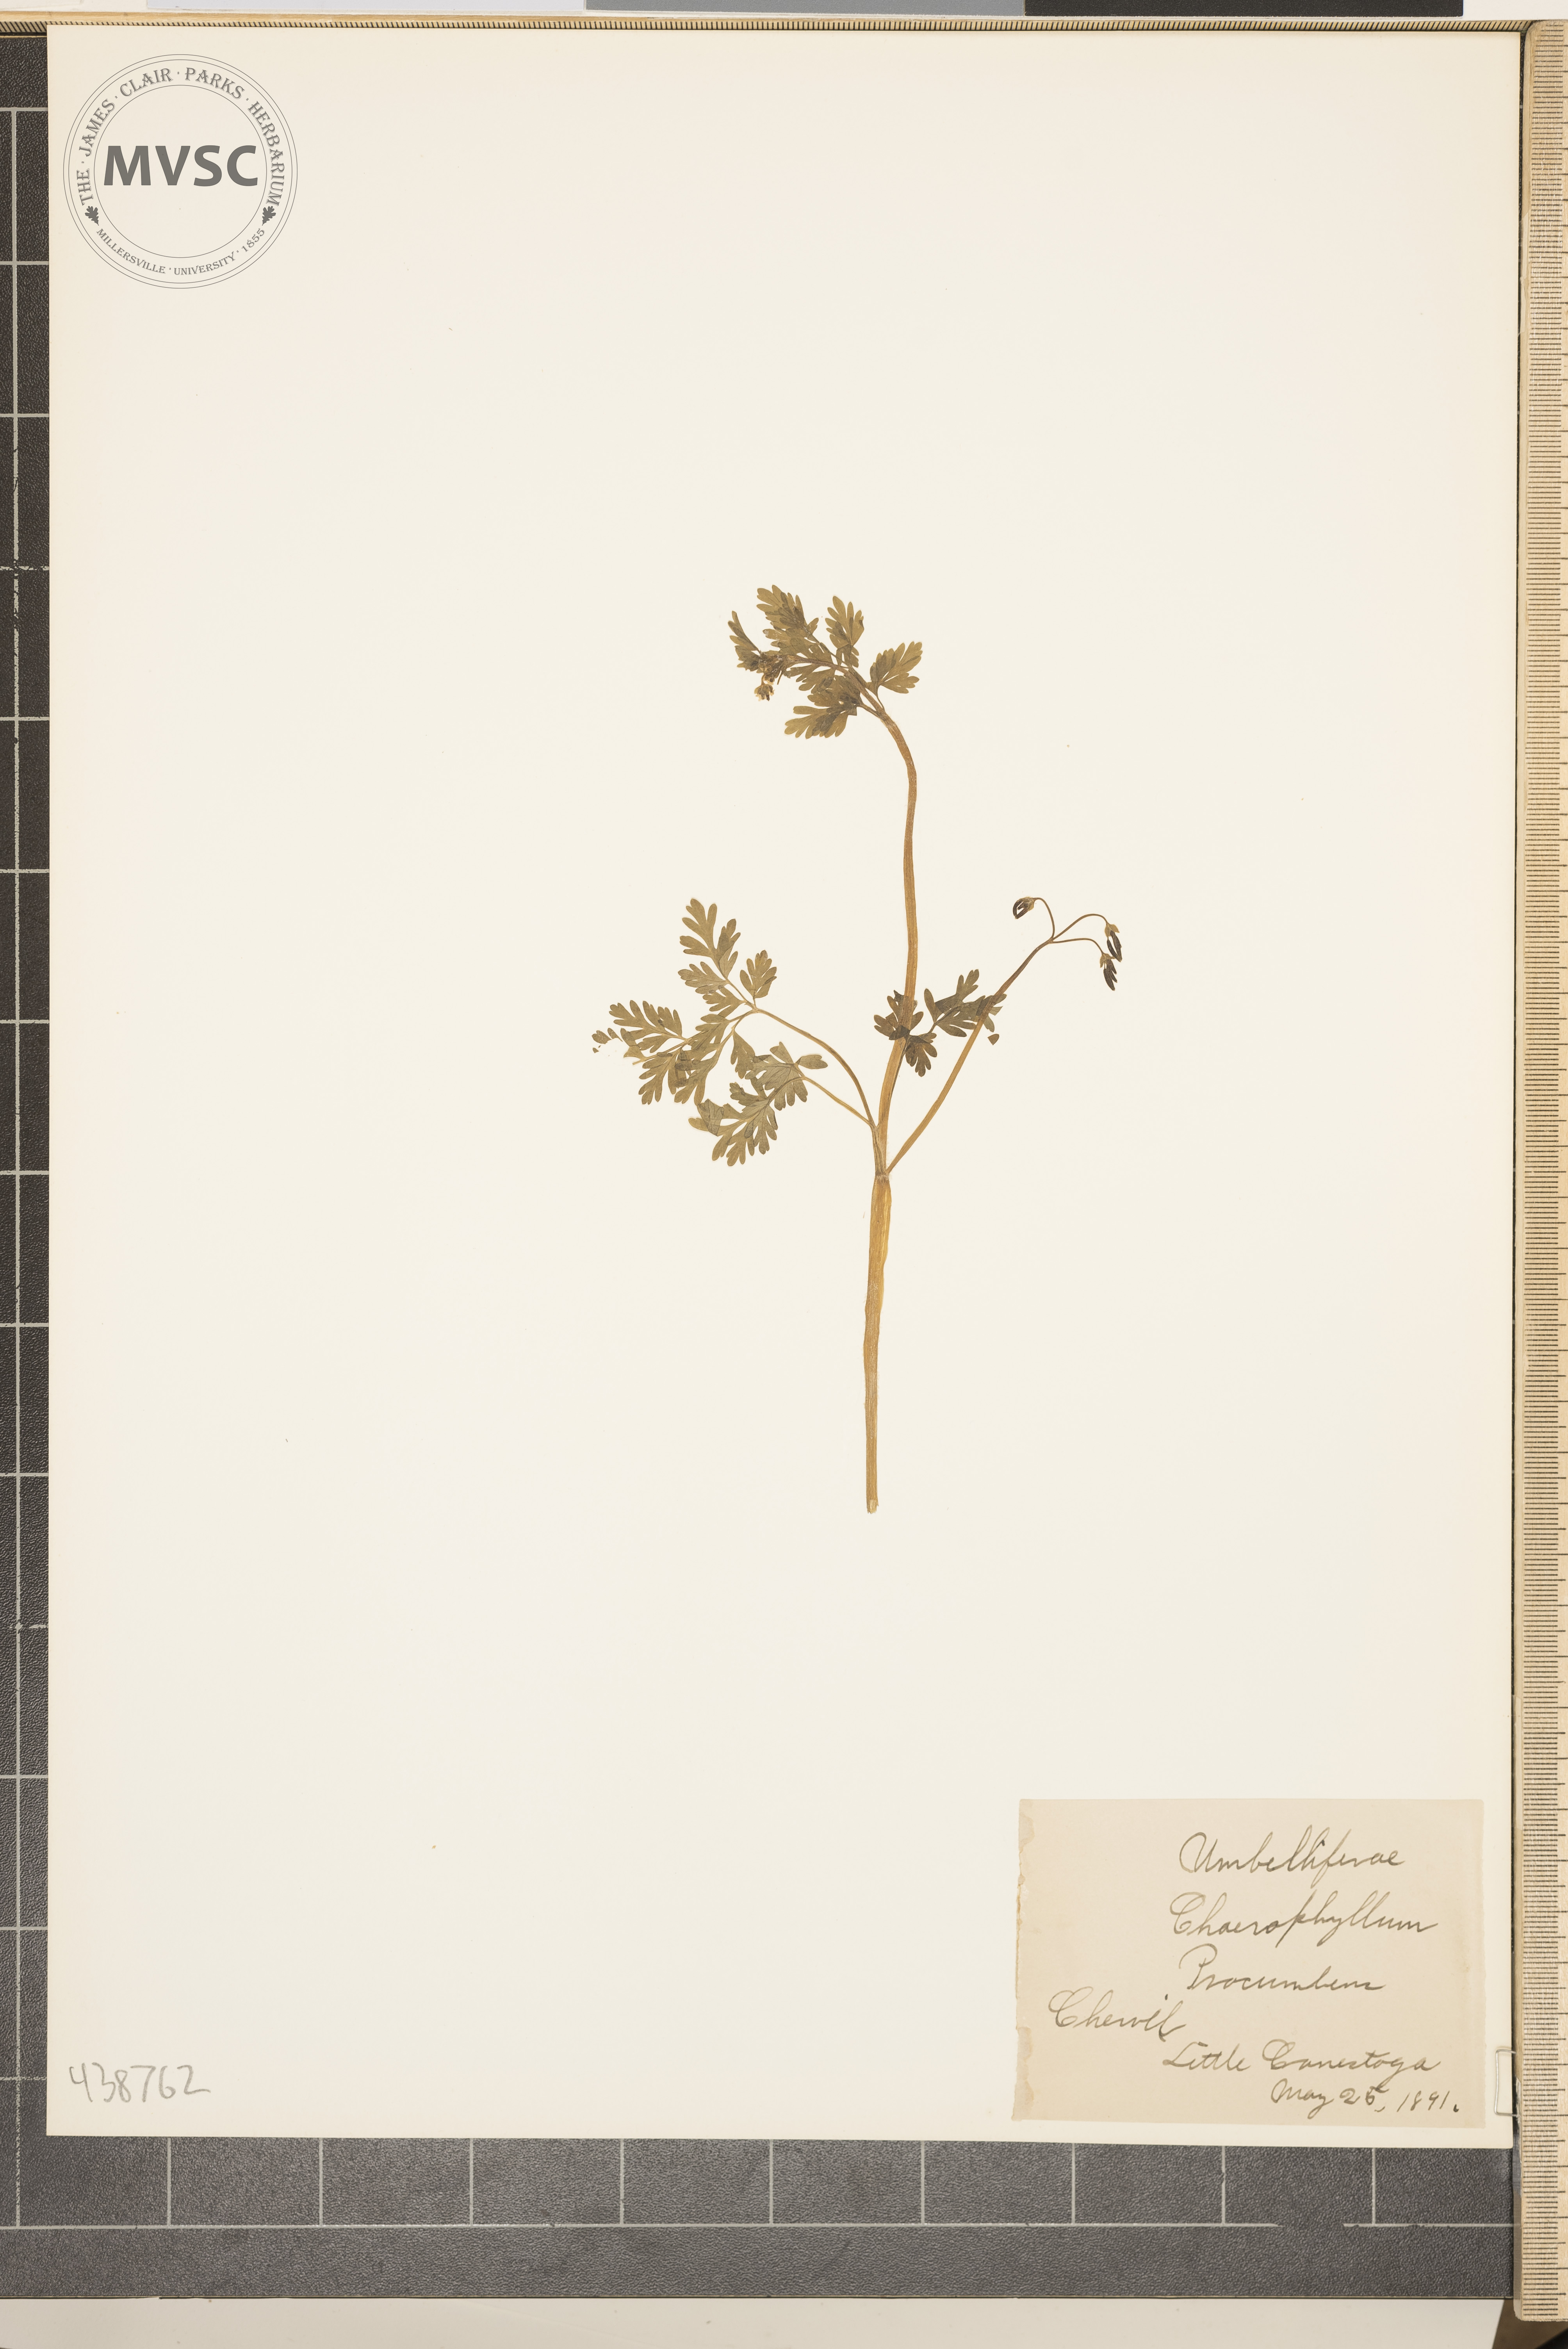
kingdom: Plantae
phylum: Tracheophyta
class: Magnoliopsida
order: Apiales
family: Apiaceae
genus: Chaerophyllum
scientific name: Chaerophyllum procumbens
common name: Chervil
